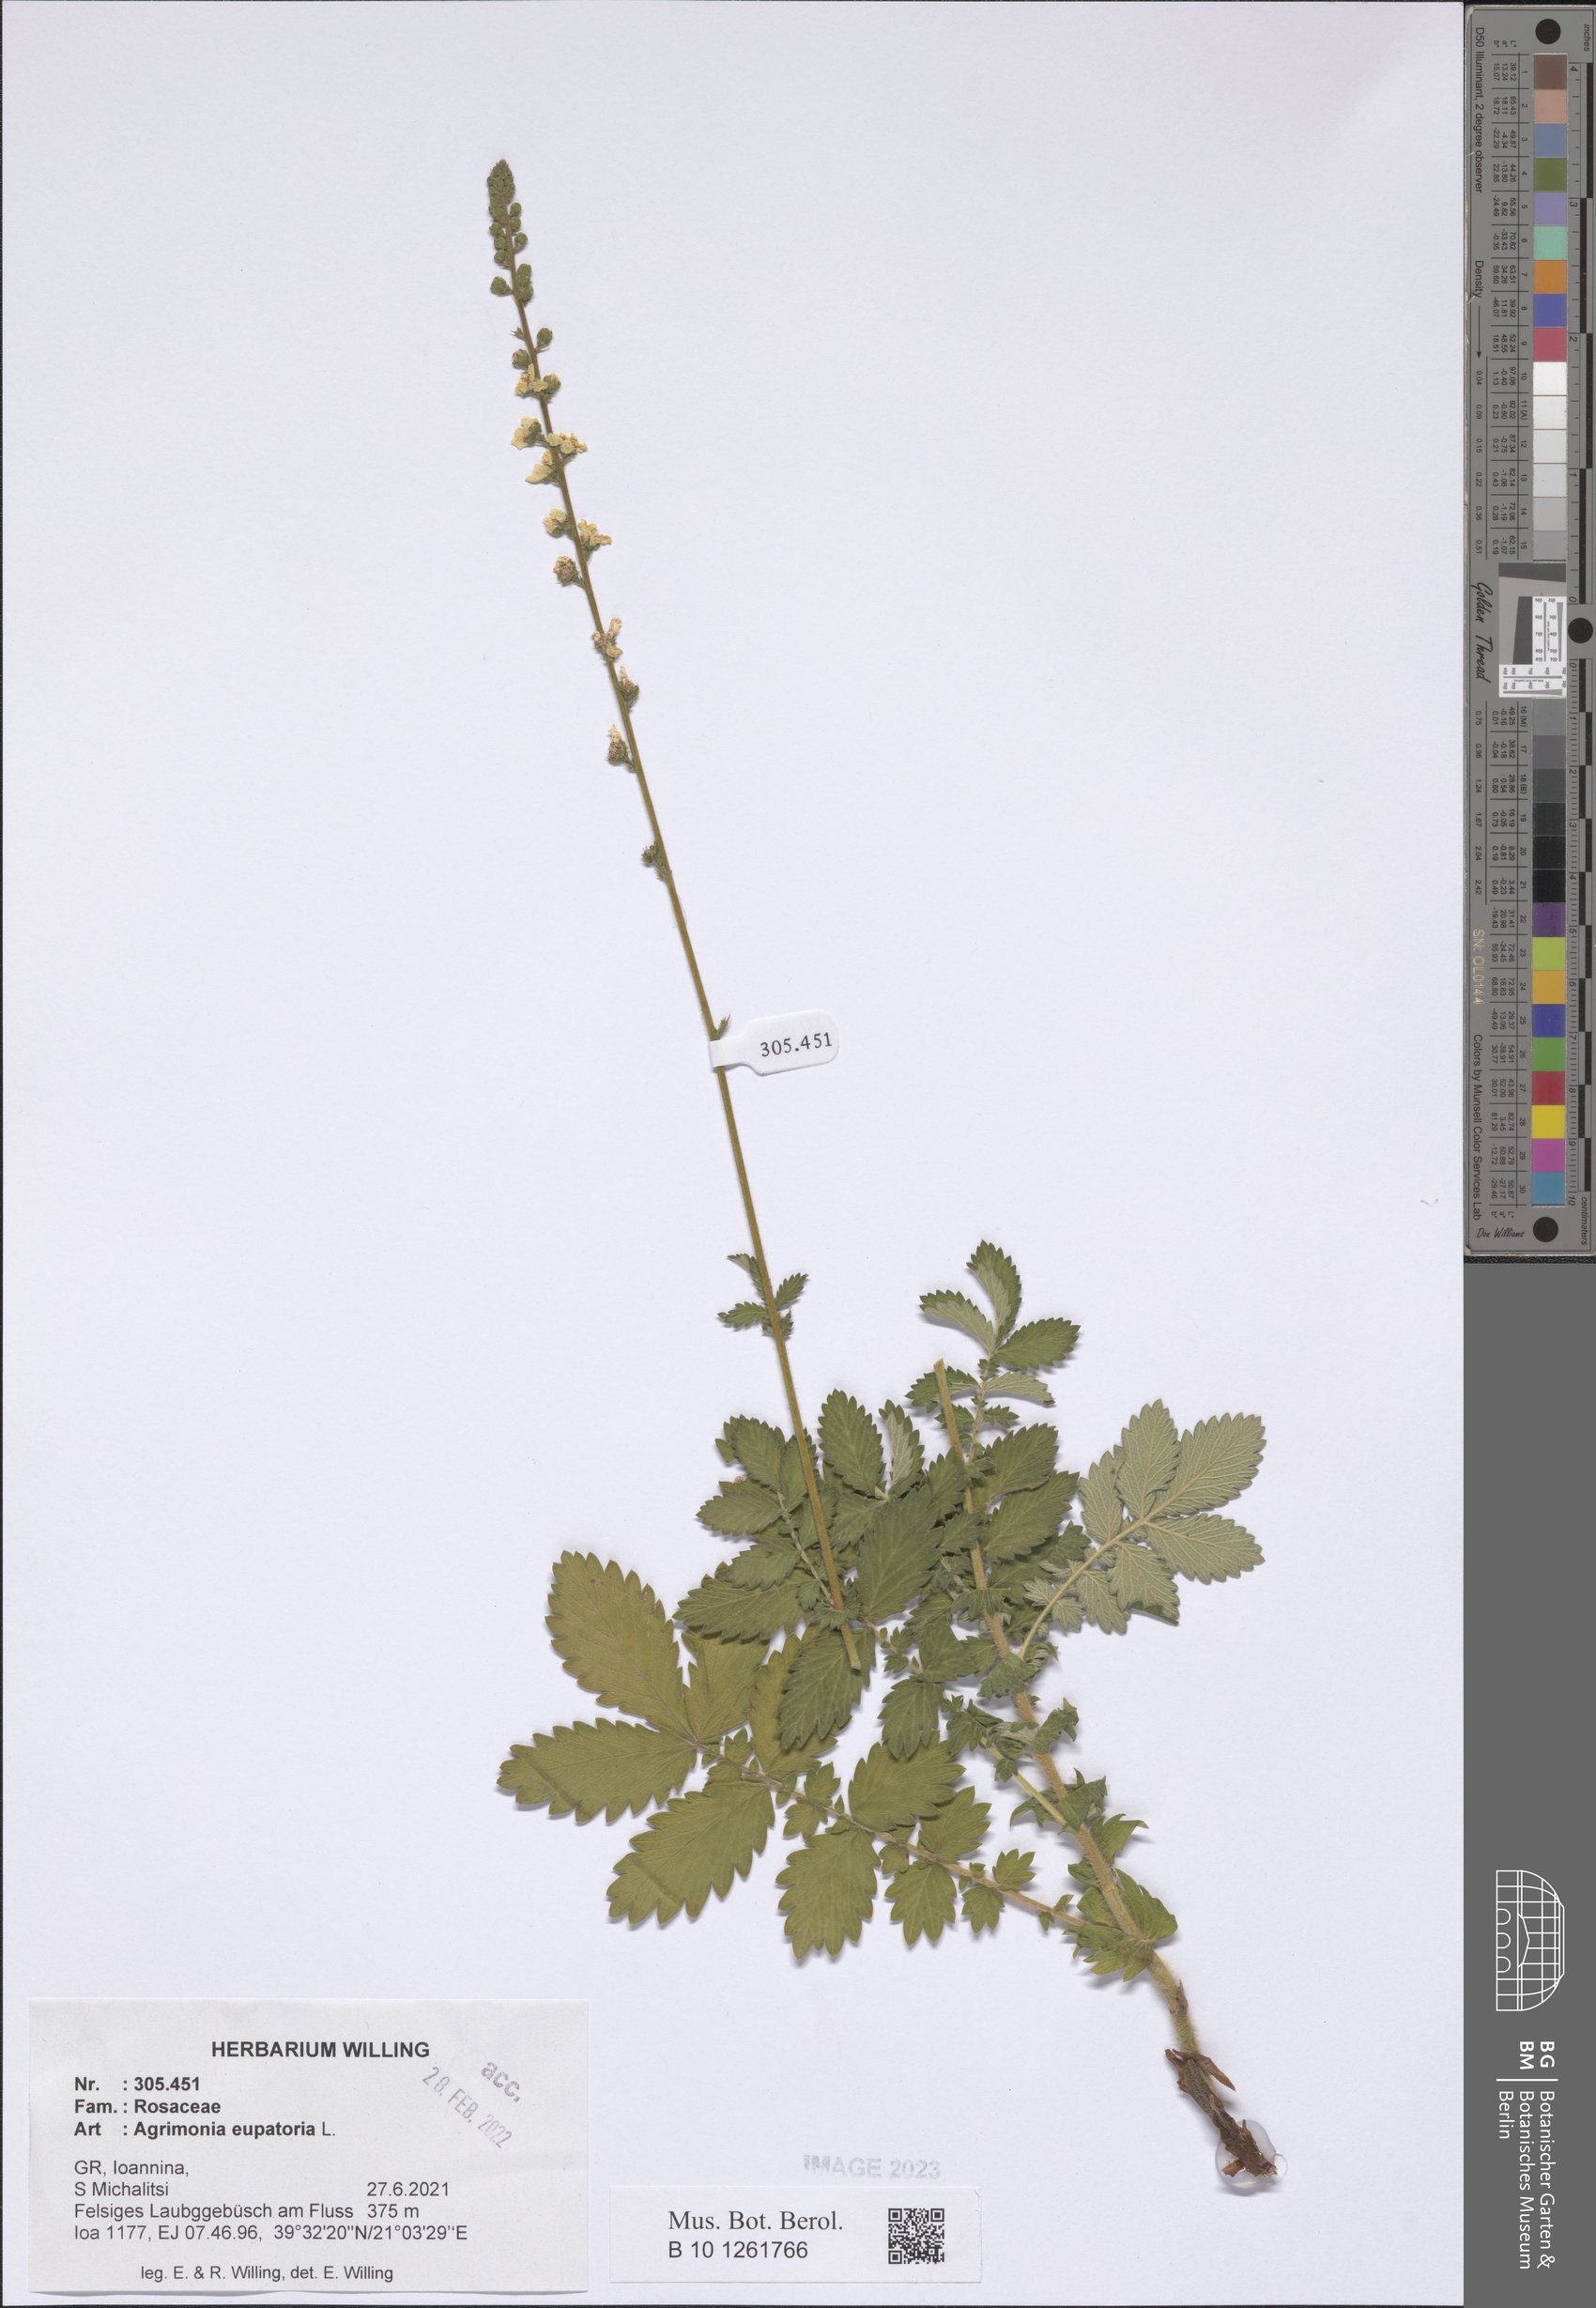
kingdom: Plantae
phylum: Tracheophyta
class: Magnoliopsida
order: Rosales
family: Rosaceae
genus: Agrimonia
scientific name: Agrimonia eupatoria
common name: Agrimony
